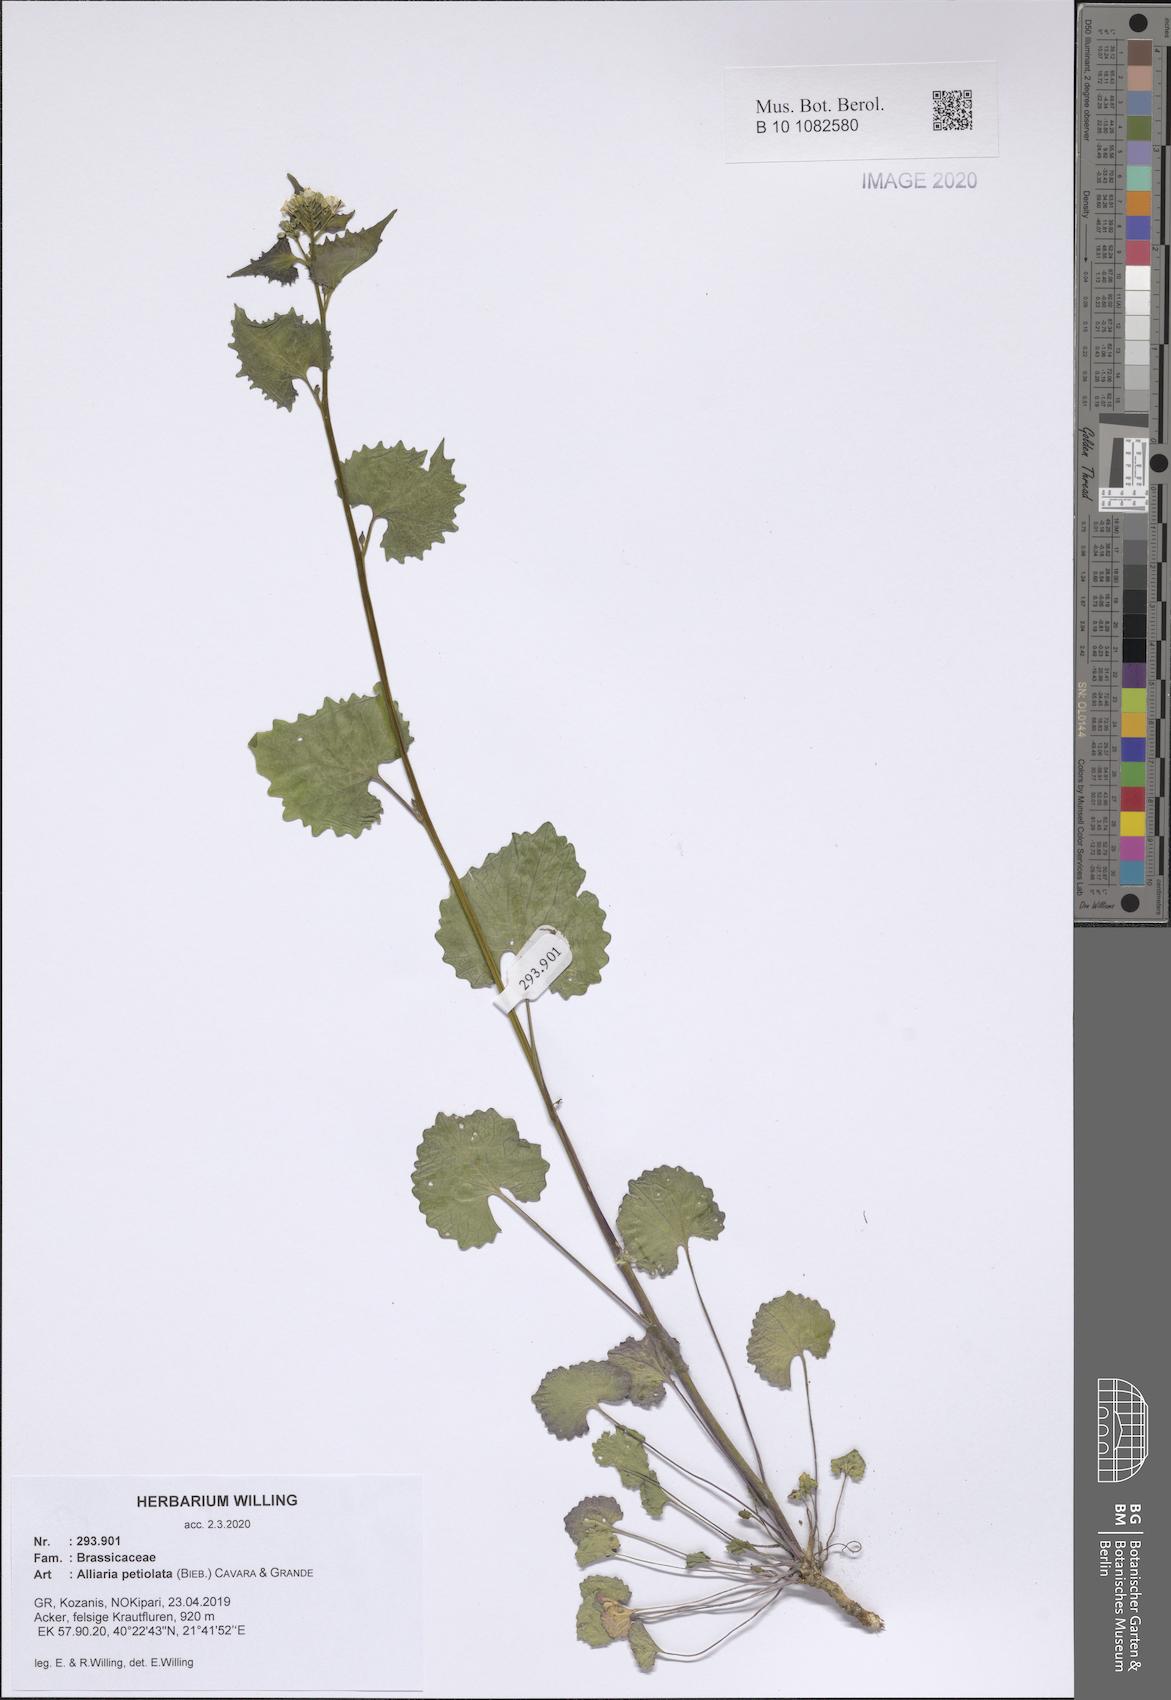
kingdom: Plantae
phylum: Tracheophyta
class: Magnoliopsida
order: Brassicales
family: Brassicaceae
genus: Alliaria
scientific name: Alliaria petiolata
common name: Garlic mustard
